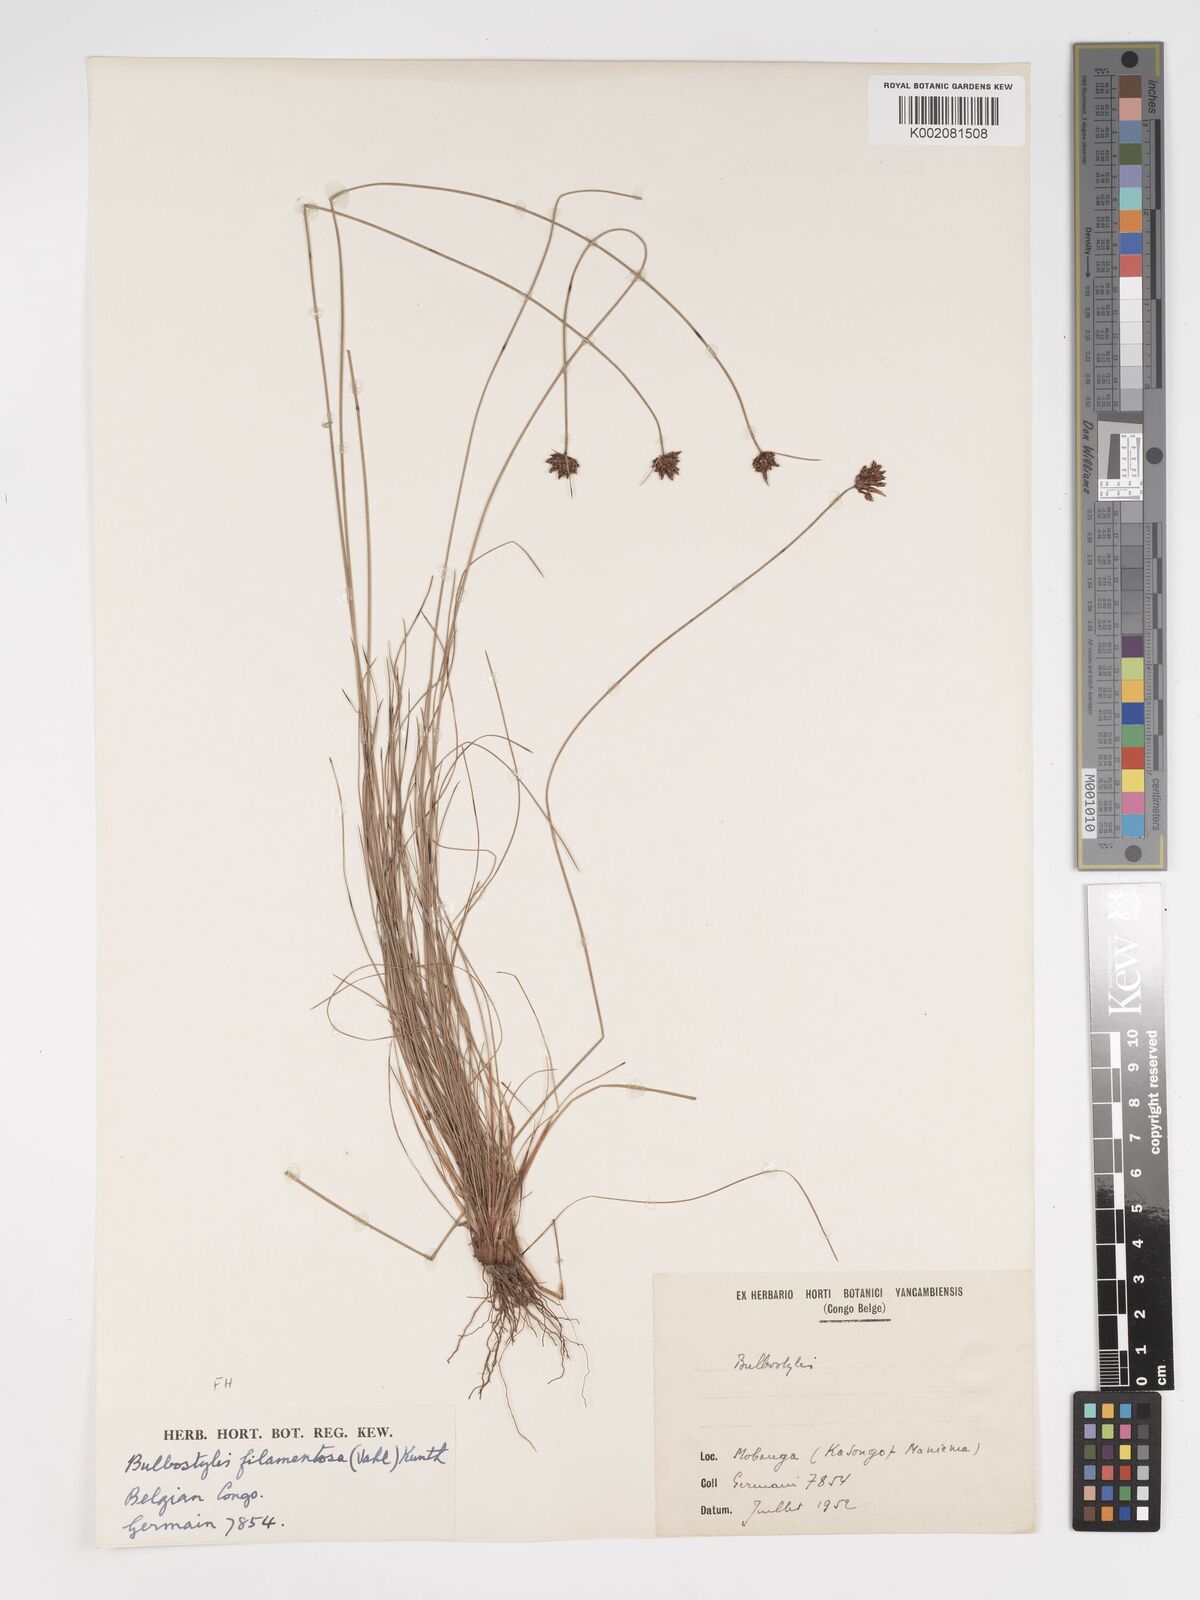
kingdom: Plantae
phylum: Tracheophyta
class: Liliopsida
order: Poales
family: Cyperaceae
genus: Bulbostylis
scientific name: Bulbostylis scabricaulis
